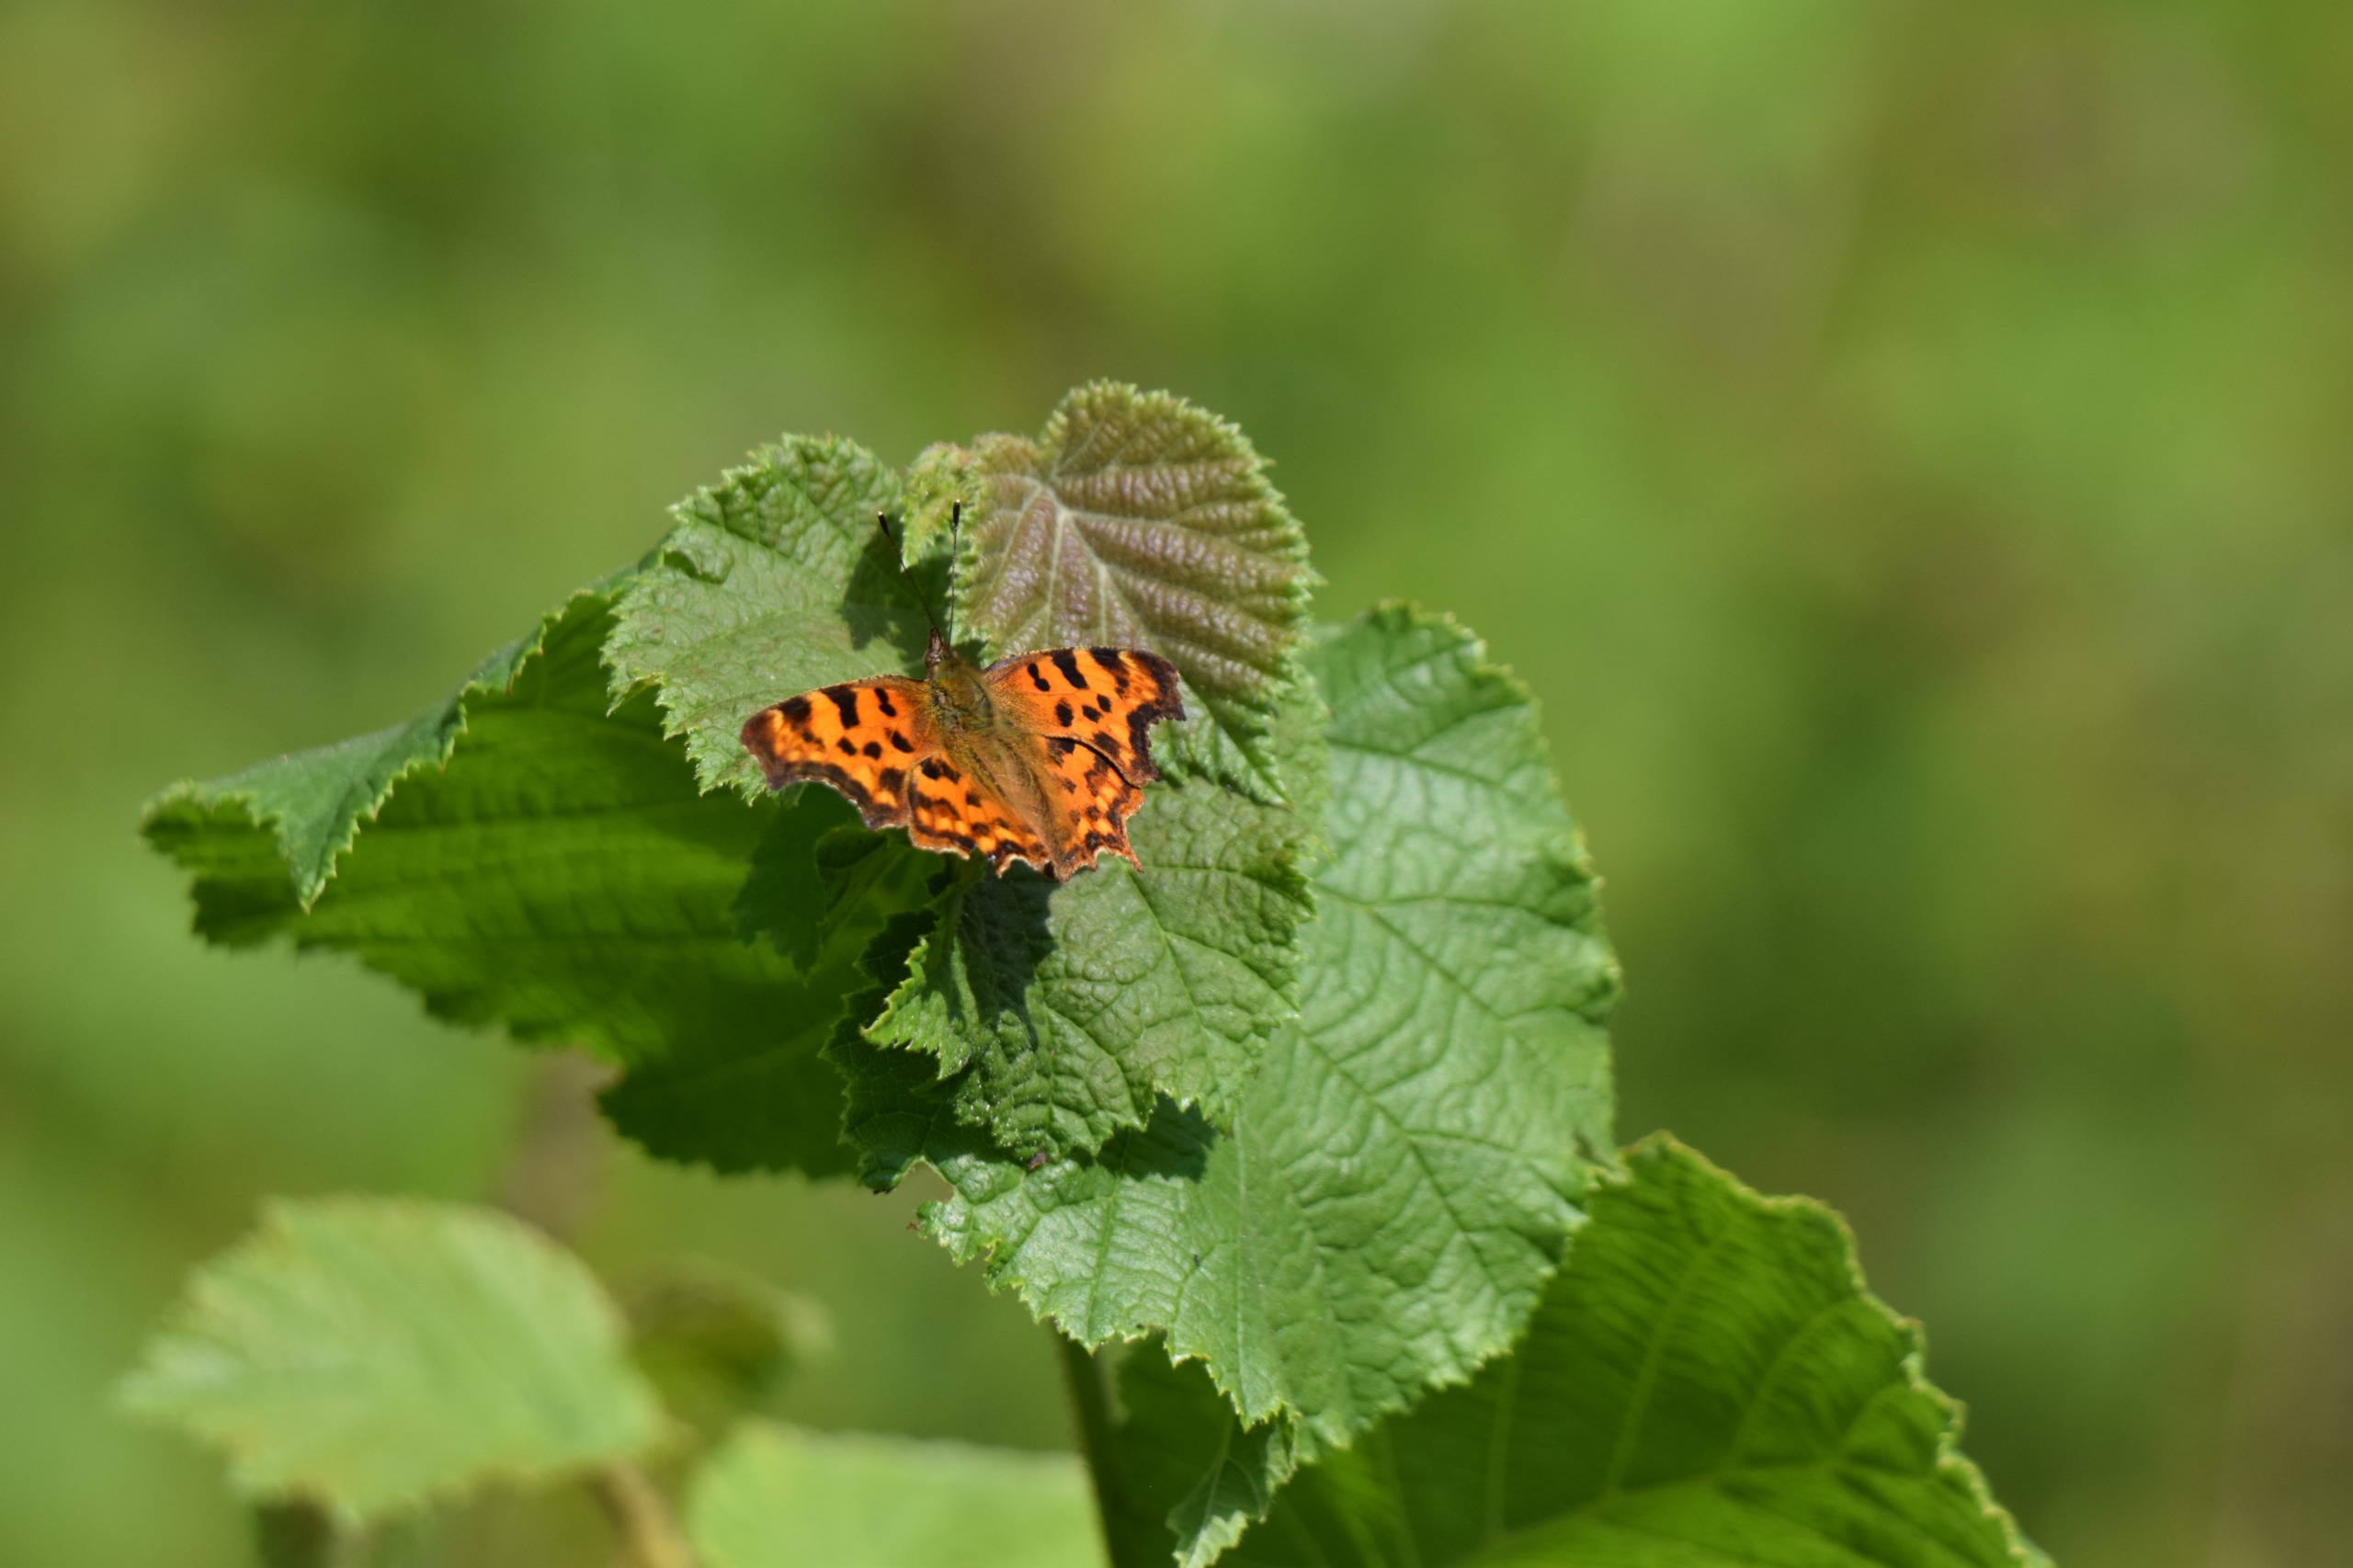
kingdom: Animalia
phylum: Arthropoda
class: Insecta
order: Lepidoptera
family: Nymphalidae
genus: Polygonia
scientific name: Polygonia c-album
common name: Det hvide C
